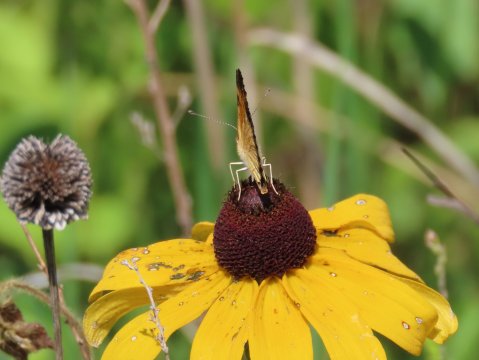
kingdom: Animalia
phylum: Arthropoda
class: Insecta
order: Lepidoptera
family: Nymphalidae
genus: Phyciodes
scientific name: Phyciodes tharos
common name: Pearl Crescent
